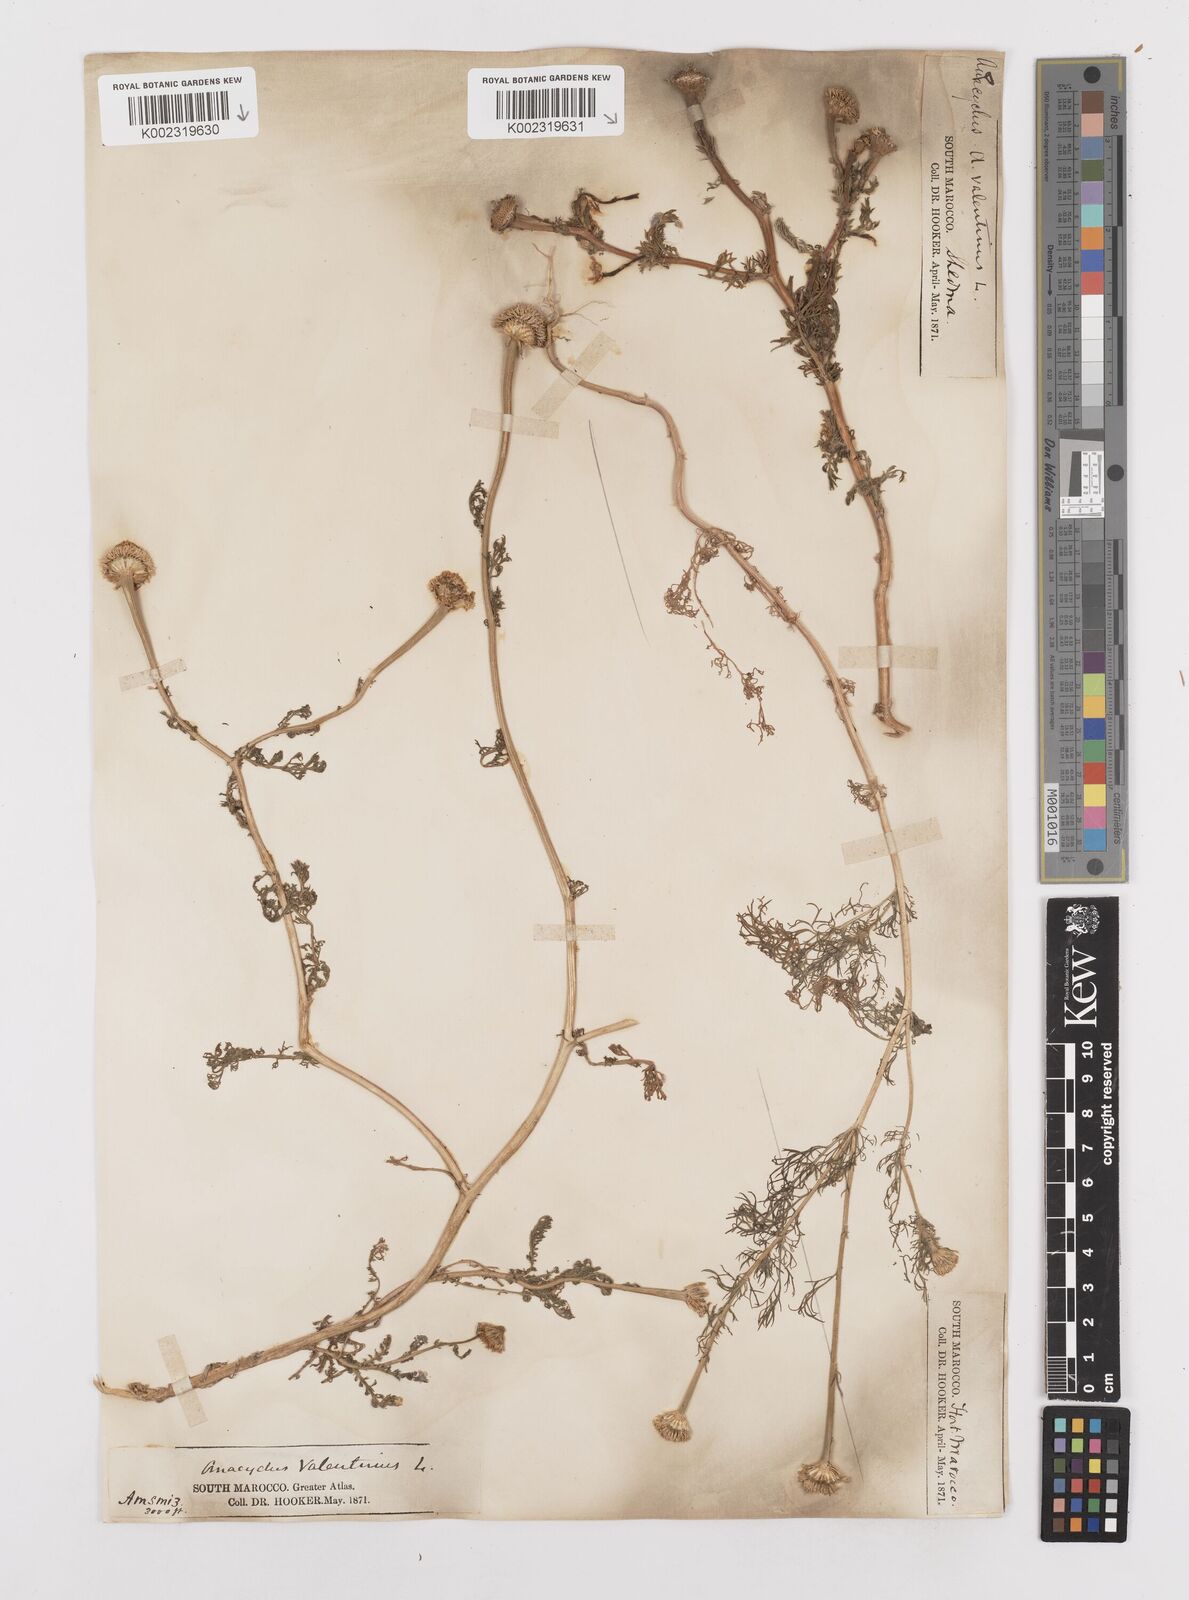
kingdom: Plantae
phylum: Tracheophyta
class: Magnoliopsida
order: Asterales
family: Asteraceae
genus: Anacyclus
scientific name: Anacyclus valentinus
